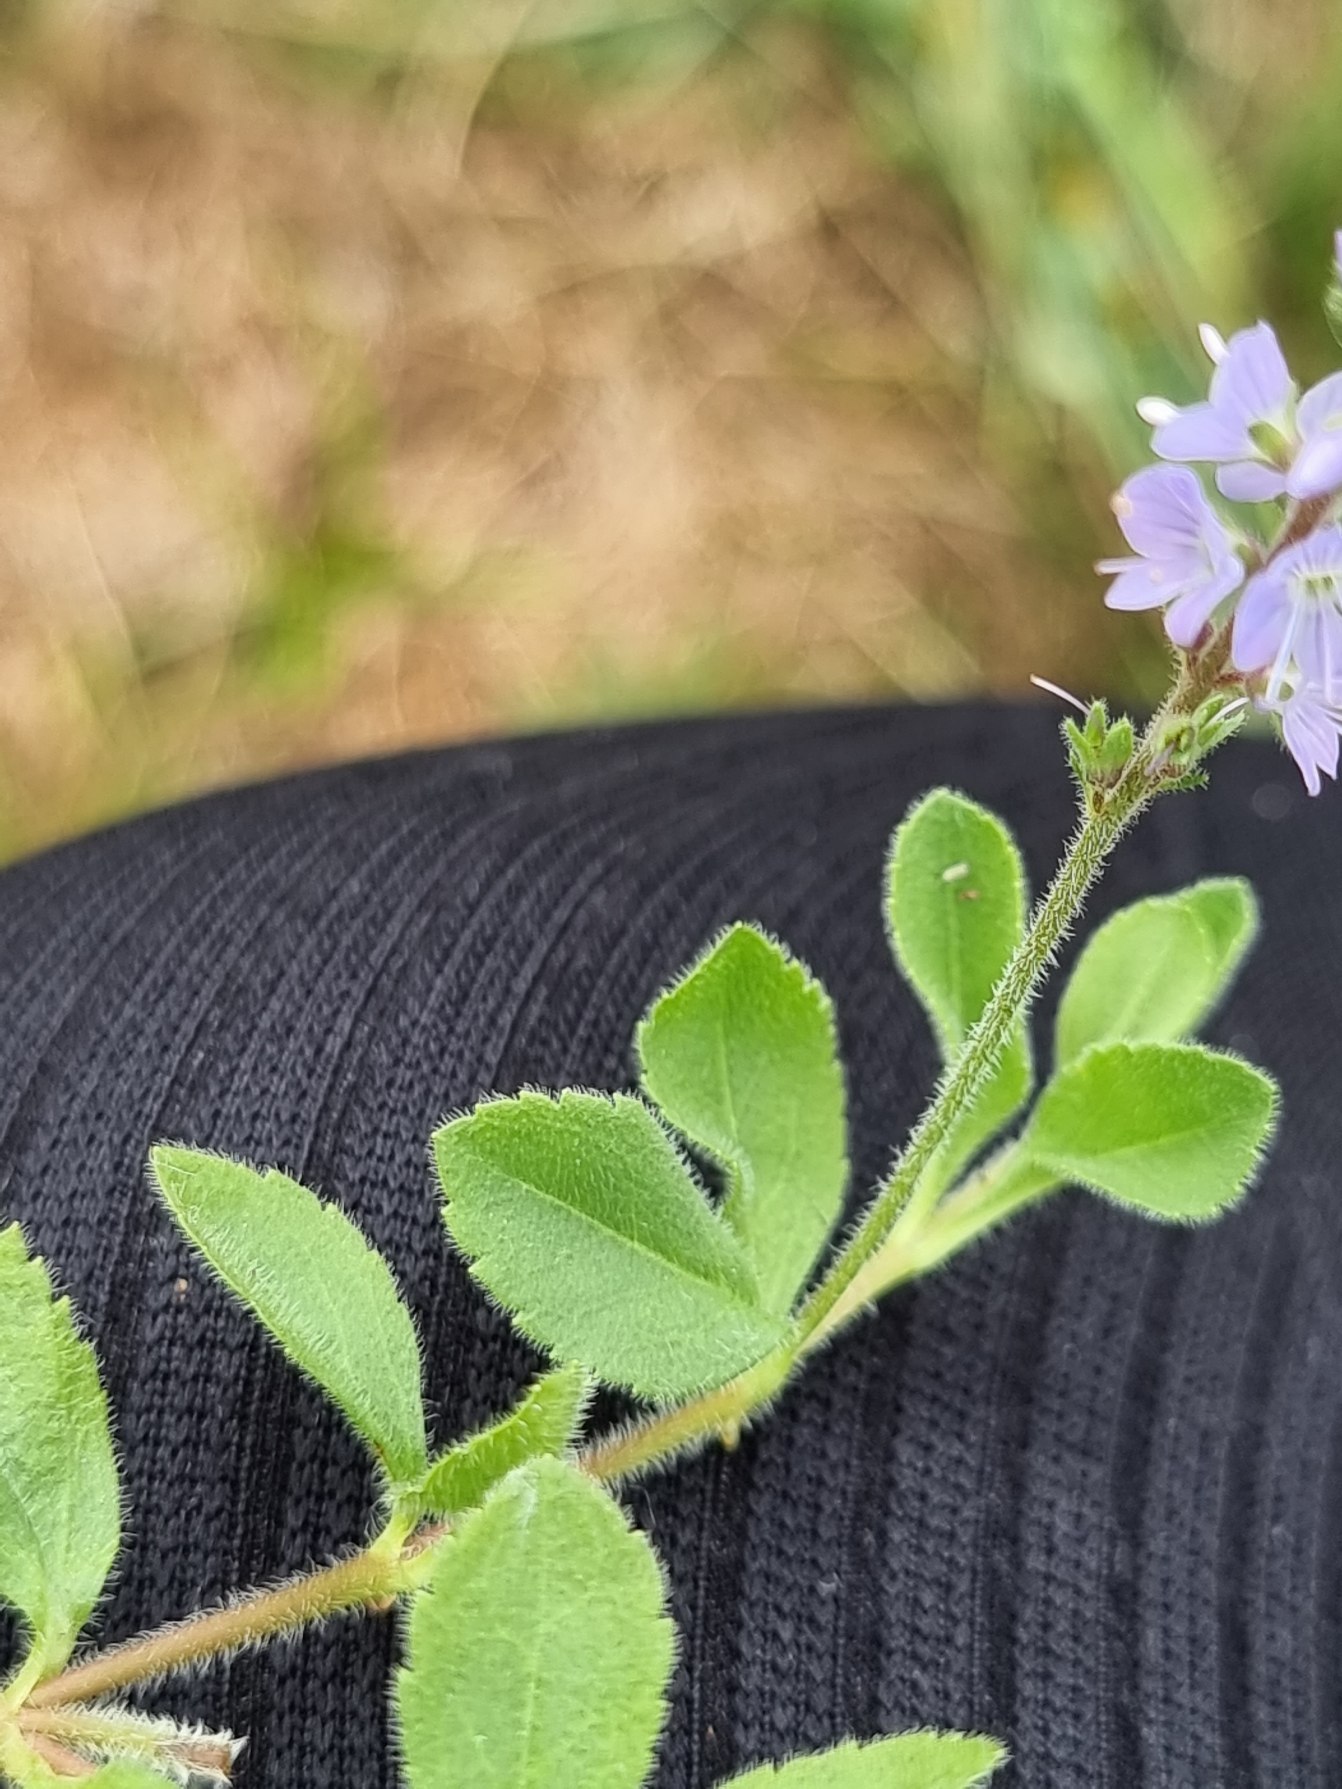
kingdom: Plantae
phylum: Tracheophyta
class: Magnoliopsida
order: Lamiales
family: Plantaginaceae
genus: Veronica
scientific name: Veronica officinalis
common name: Læge-ærenpris
